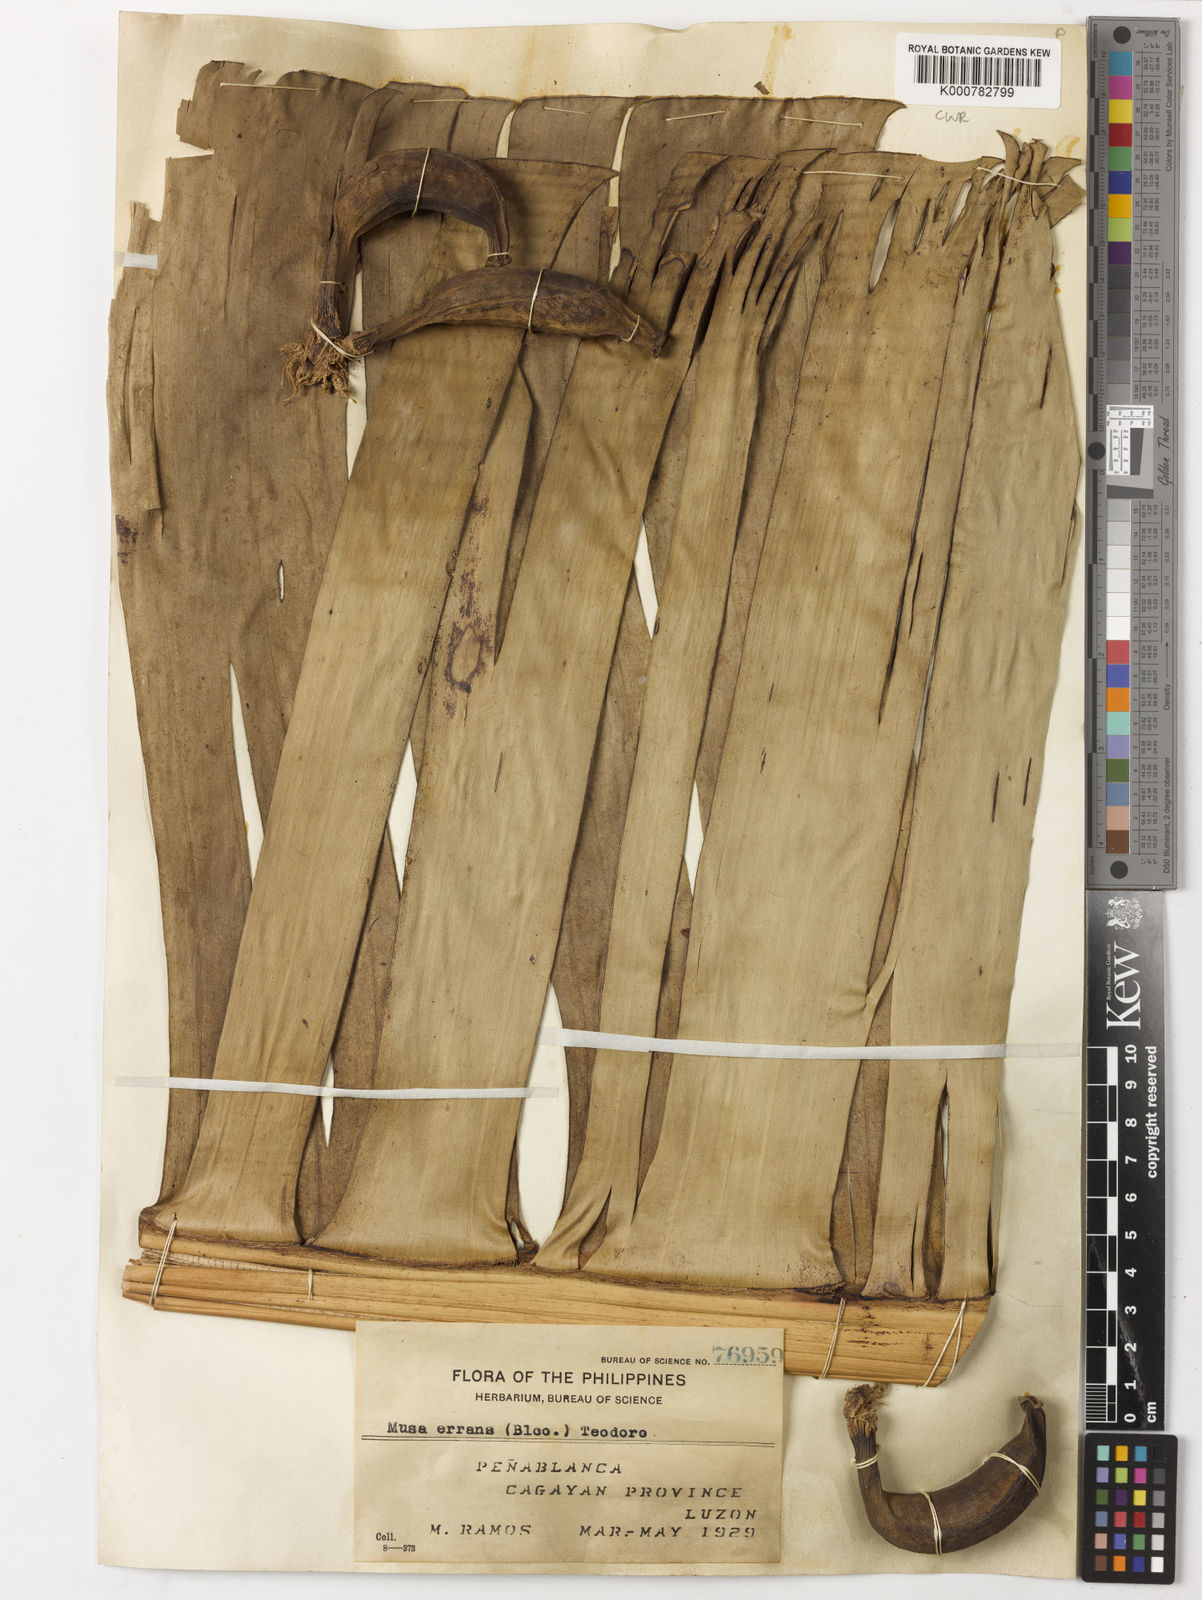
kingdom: Plantae
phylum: Tracheophyta
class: Liliopsida
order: Zingiberales
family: Musaceae
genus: Musa
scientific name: Musa acuminata
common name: Edible banana
